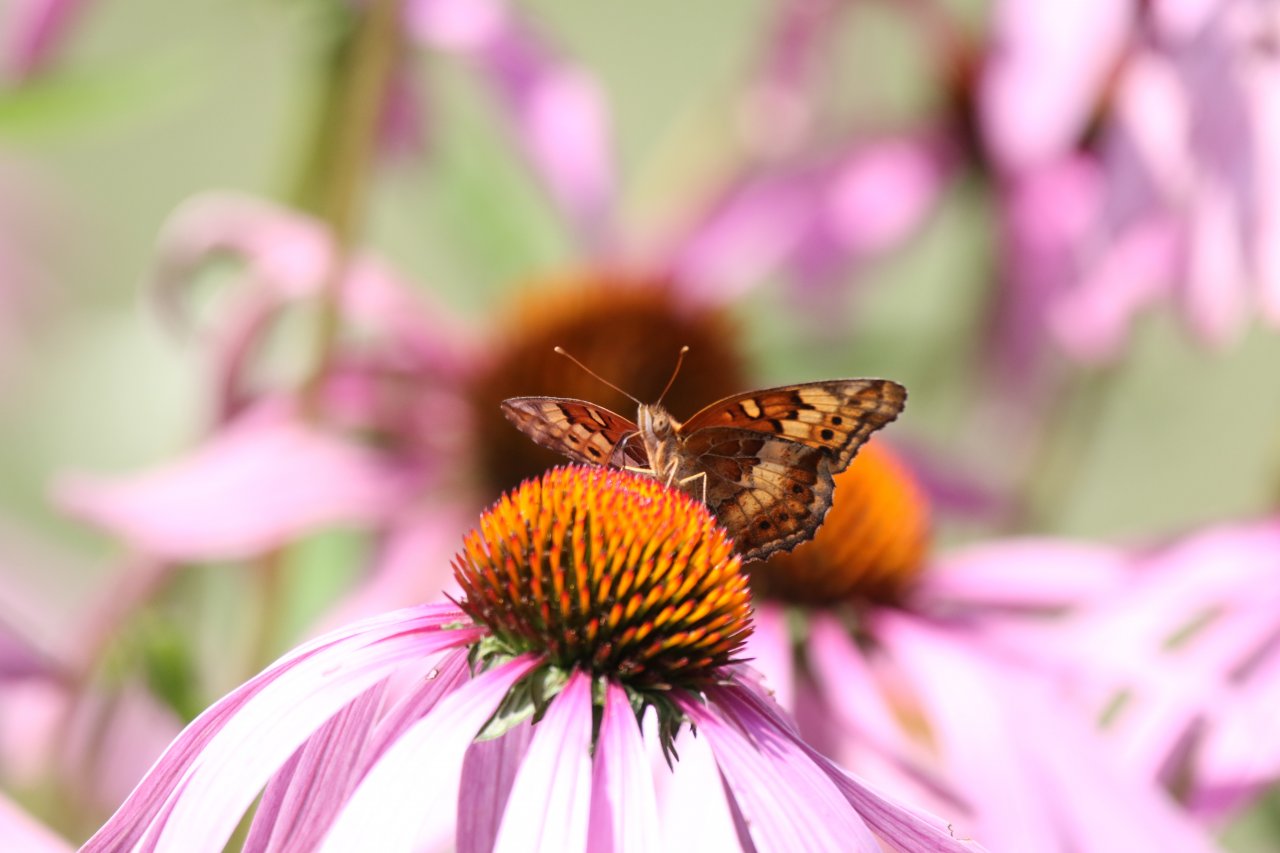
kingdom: Animalia
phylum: Arthropoda
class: Insecta
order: Lepidoptera
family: Nymphalidae
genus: Euptoieta
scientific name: Euptoieta claudia
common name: Variegated Fritillary
